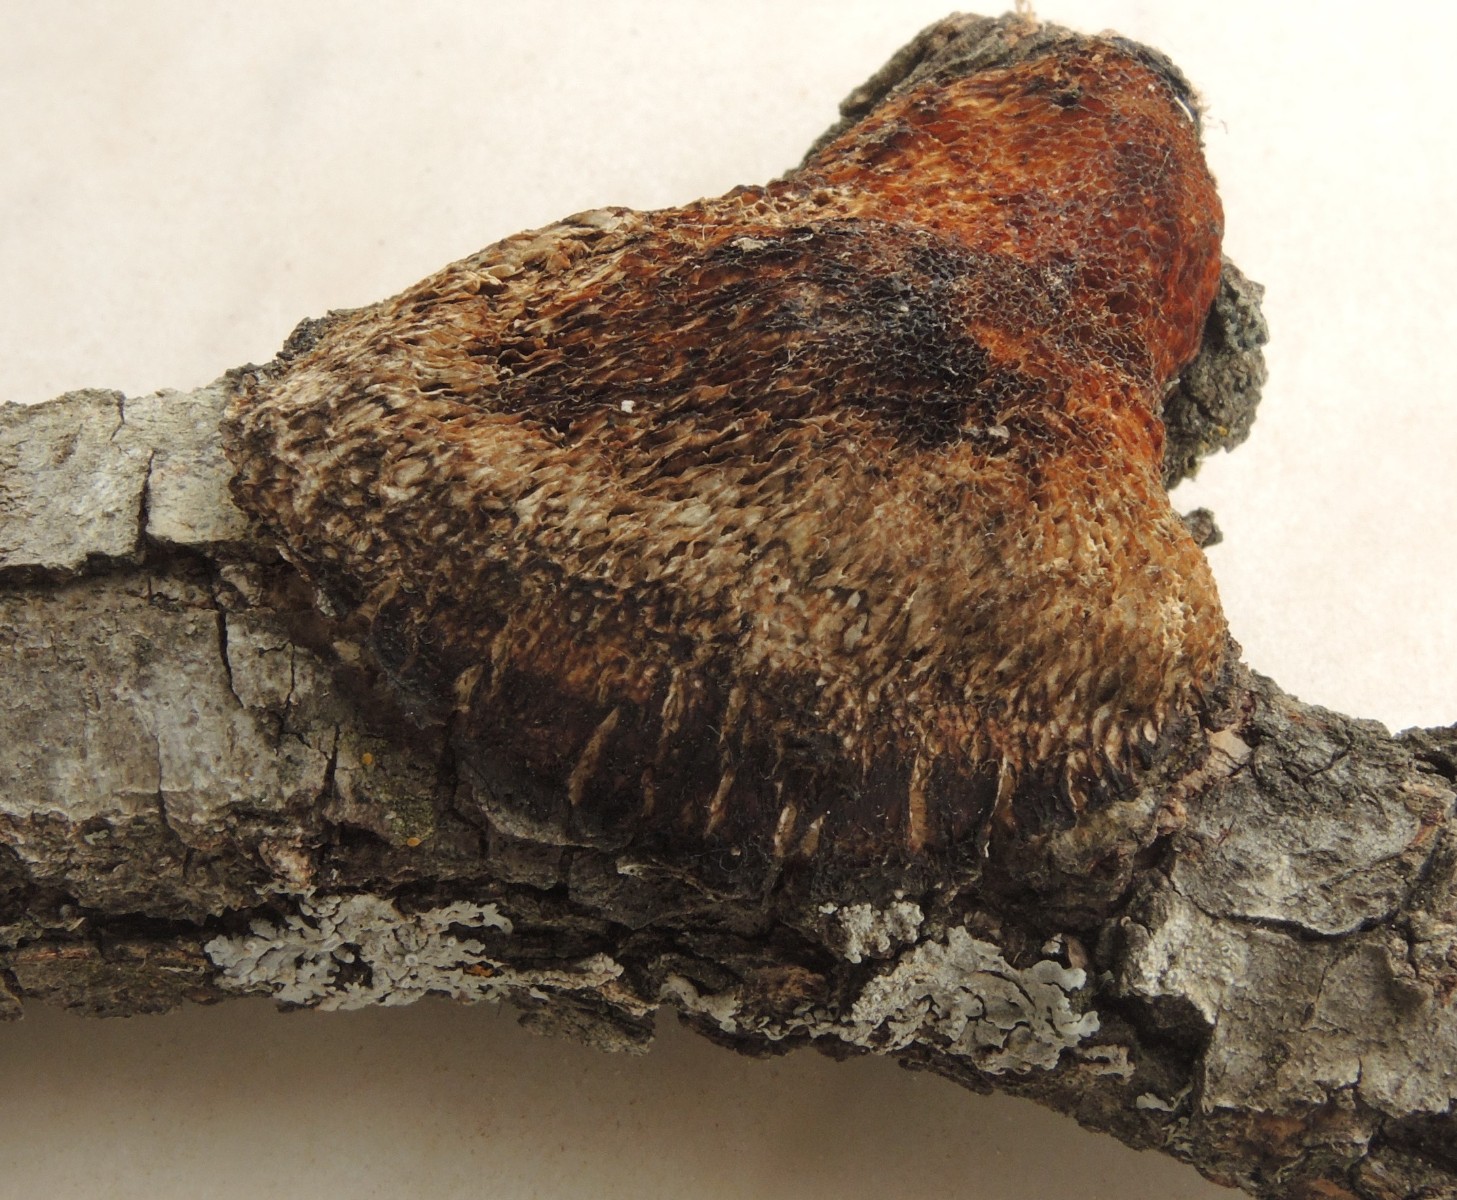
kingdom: Fungi
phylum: Basidiomycota
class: Agaricomycetes
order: Polyporales
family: Polyporaceae
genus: Szczepkamyces
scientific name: Szczepkamyces campestris
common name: hasselporesvamp
